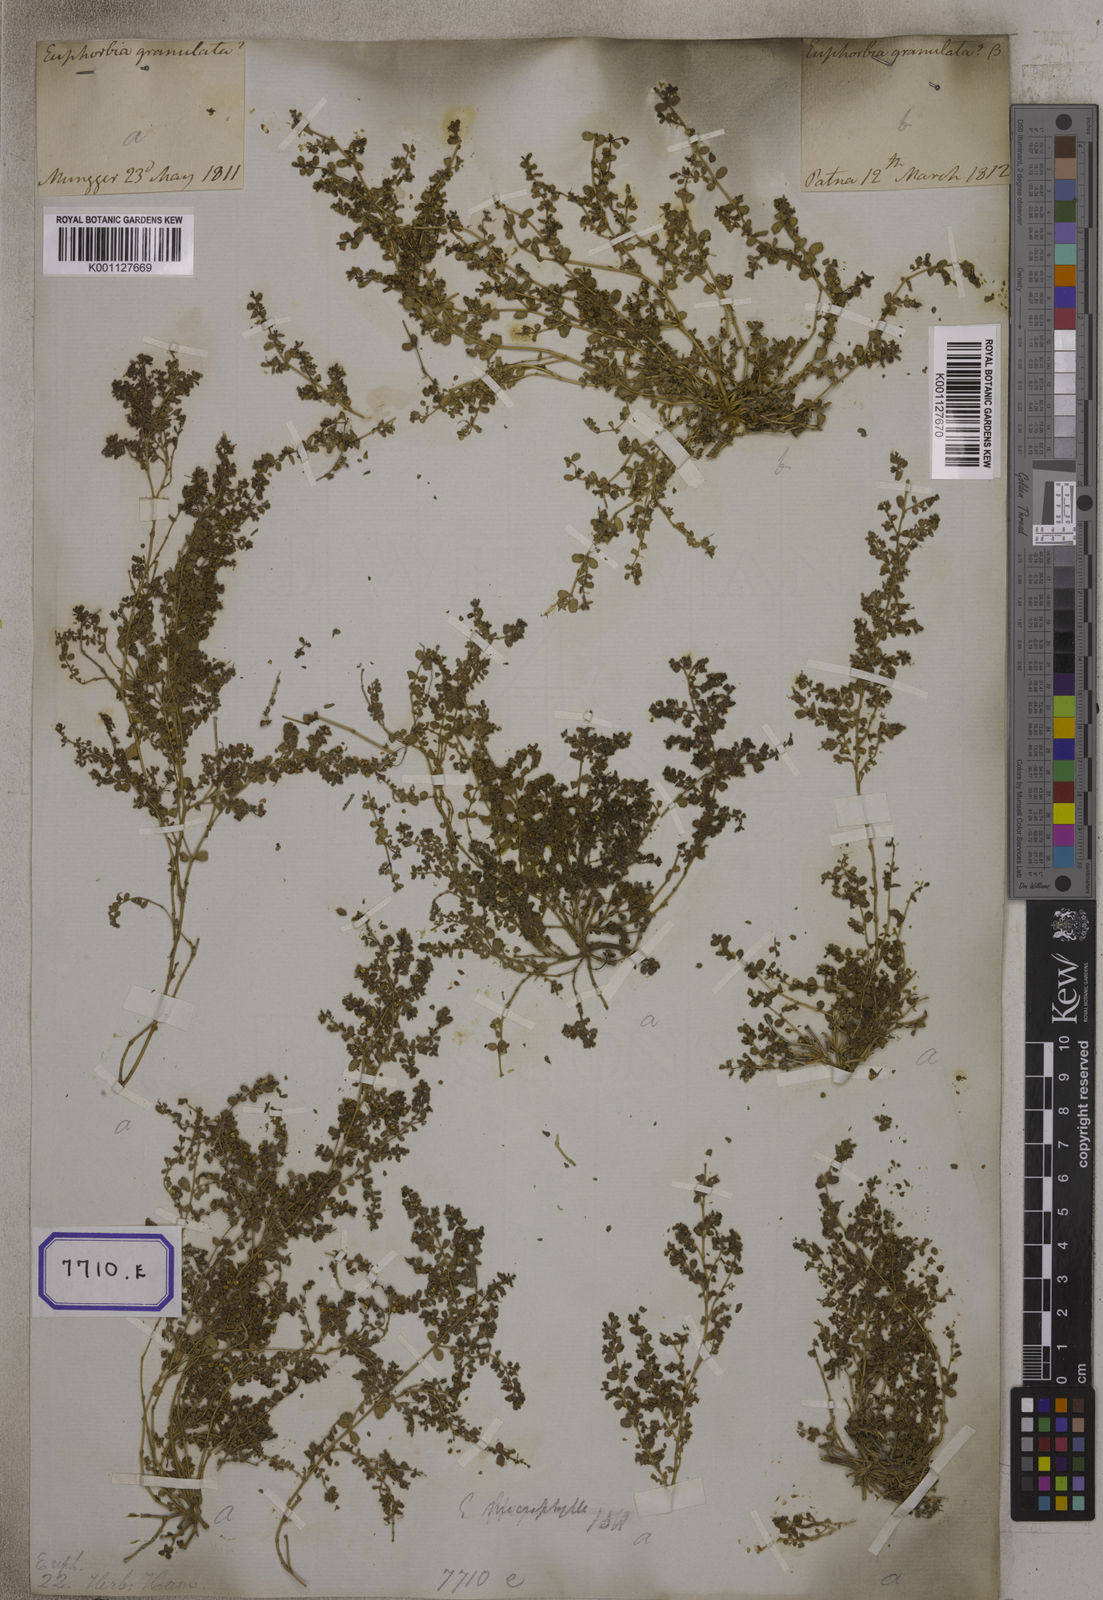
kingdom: Plantae
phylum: Tracheophyta
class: Magnoliopsida
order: Malpighiales
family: Euphorbiaceae
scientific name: Euphorbiaceae
